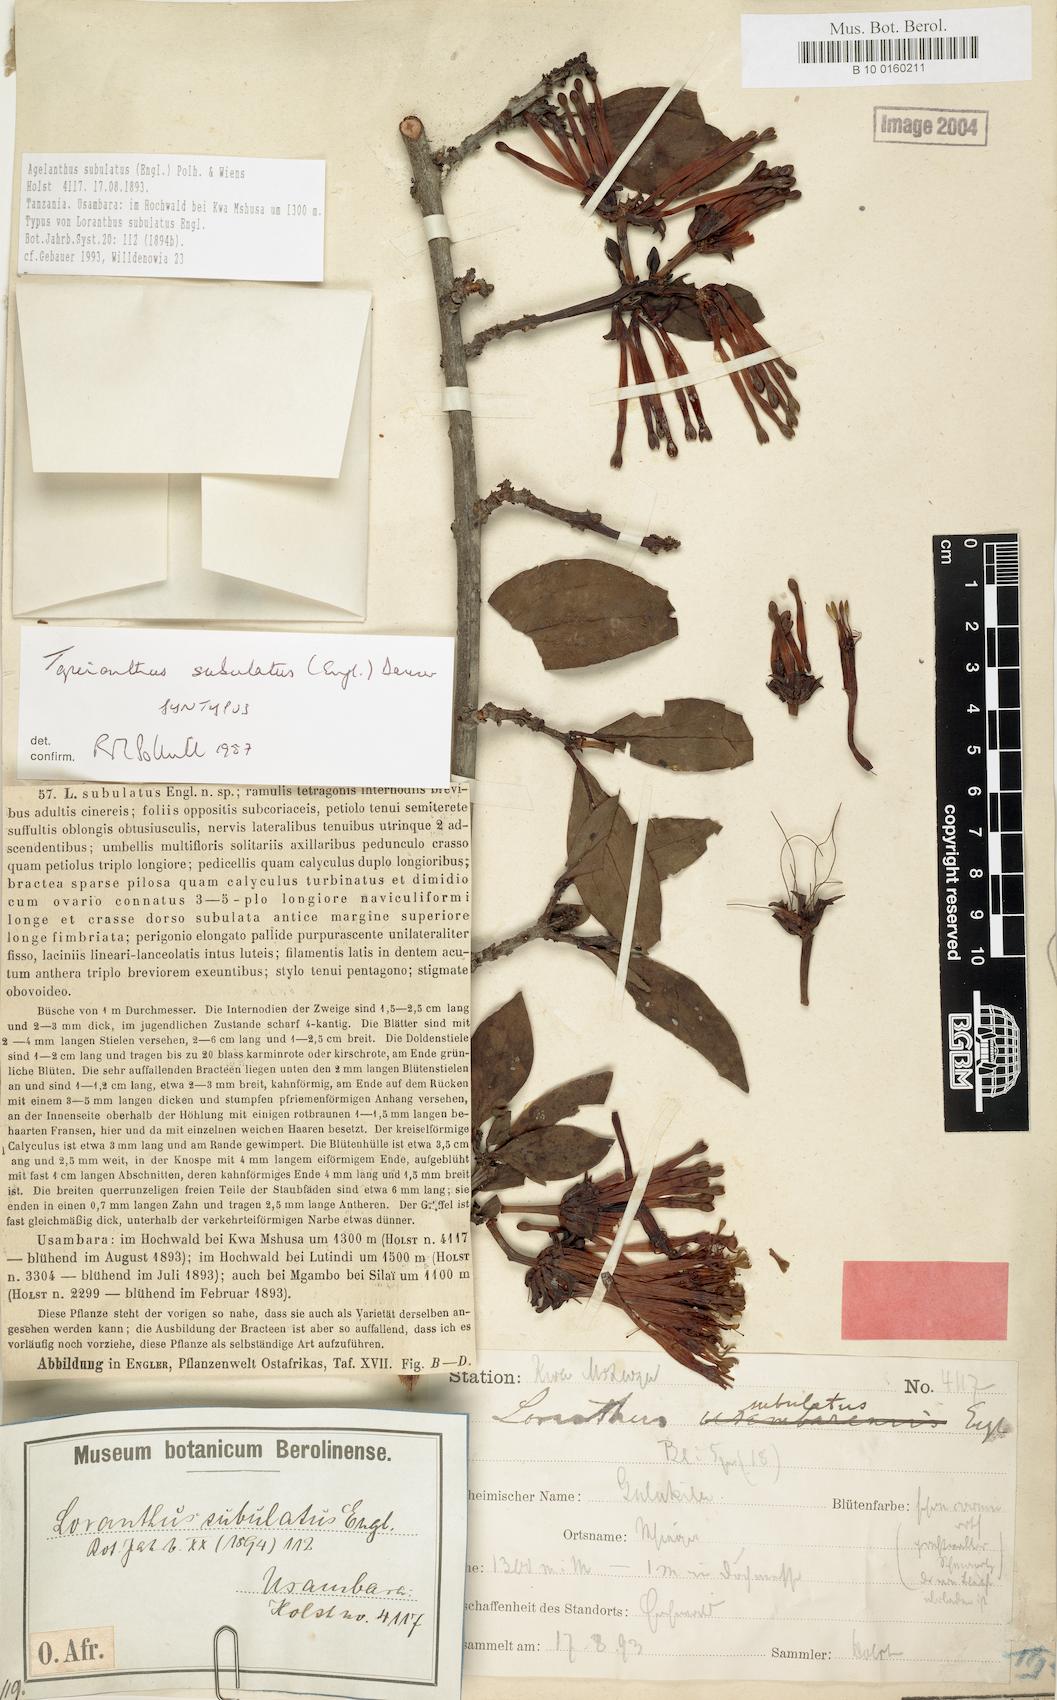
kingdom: Plantae
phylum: Tracheophyta
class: Magnoliopsida
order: Santalales
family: Loranthaceae
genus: Agelanthus
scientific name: Agelanthus subulatus
